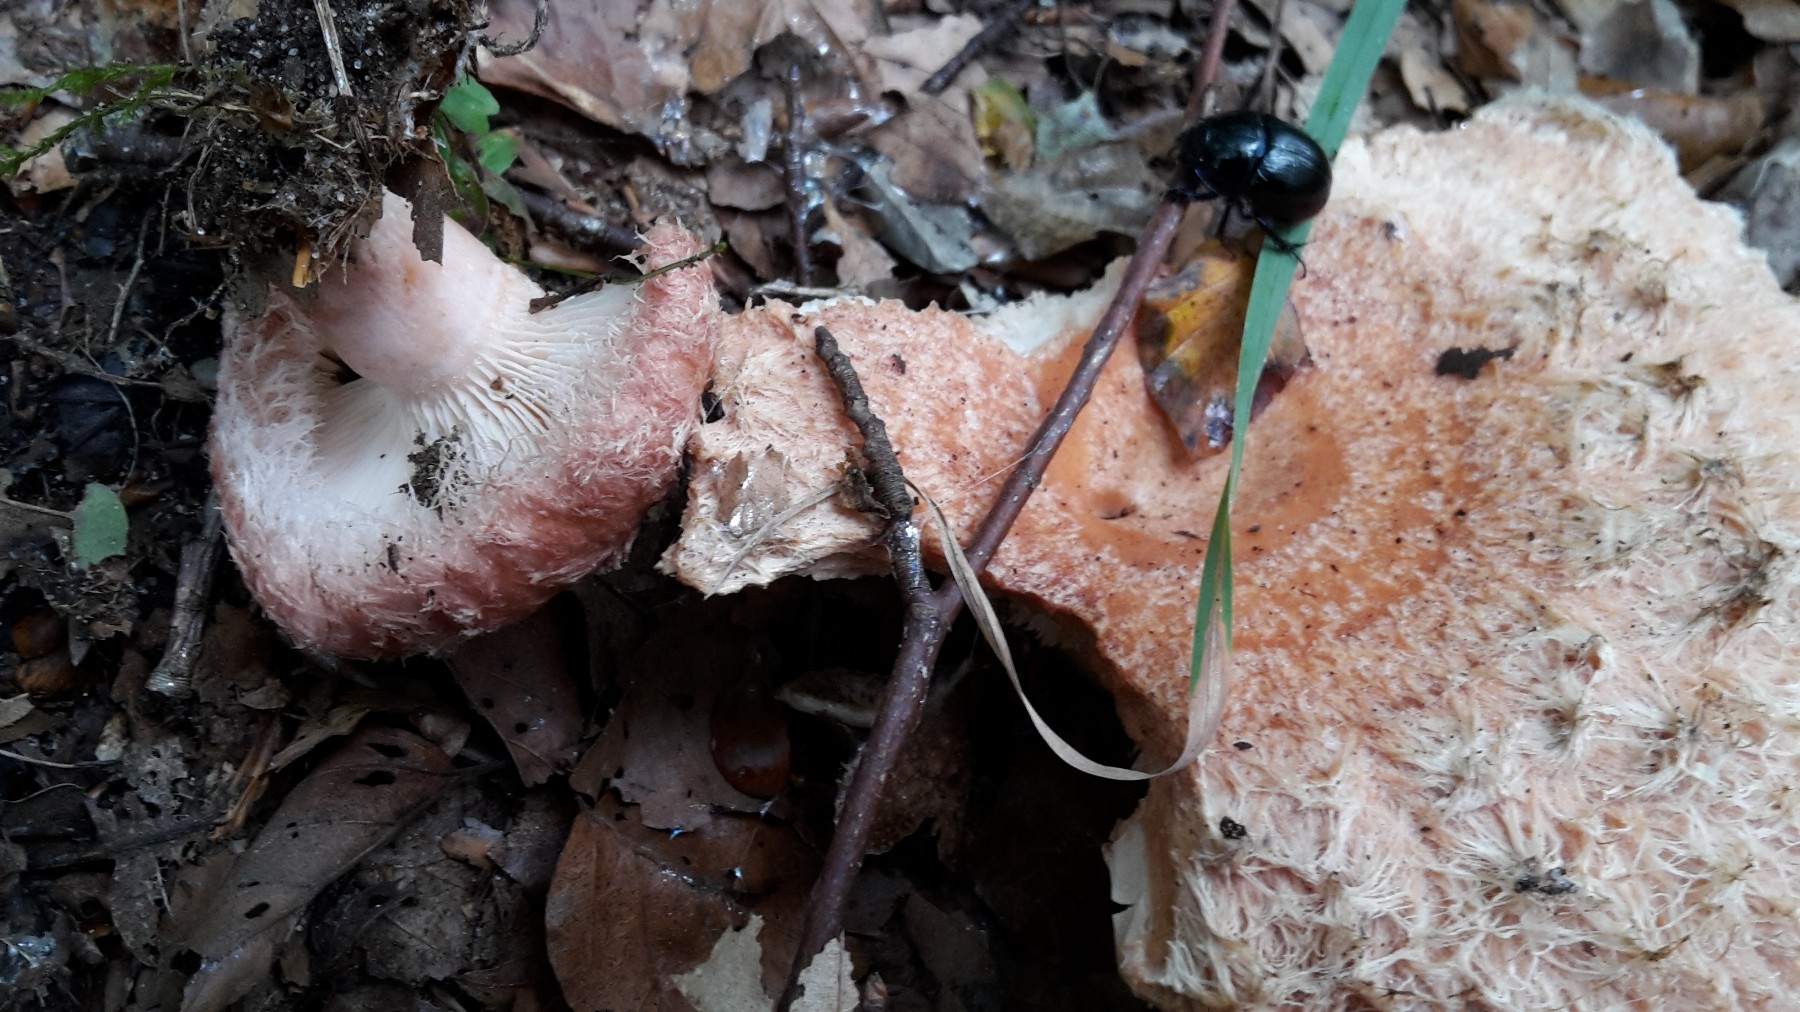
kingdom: Fungi
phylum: Basidiomycota
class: Agaricomycetes
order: Russulales
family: Russulaceae
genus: Lactarius
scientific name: Lactarius torminosus
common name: skægget mælkehat
